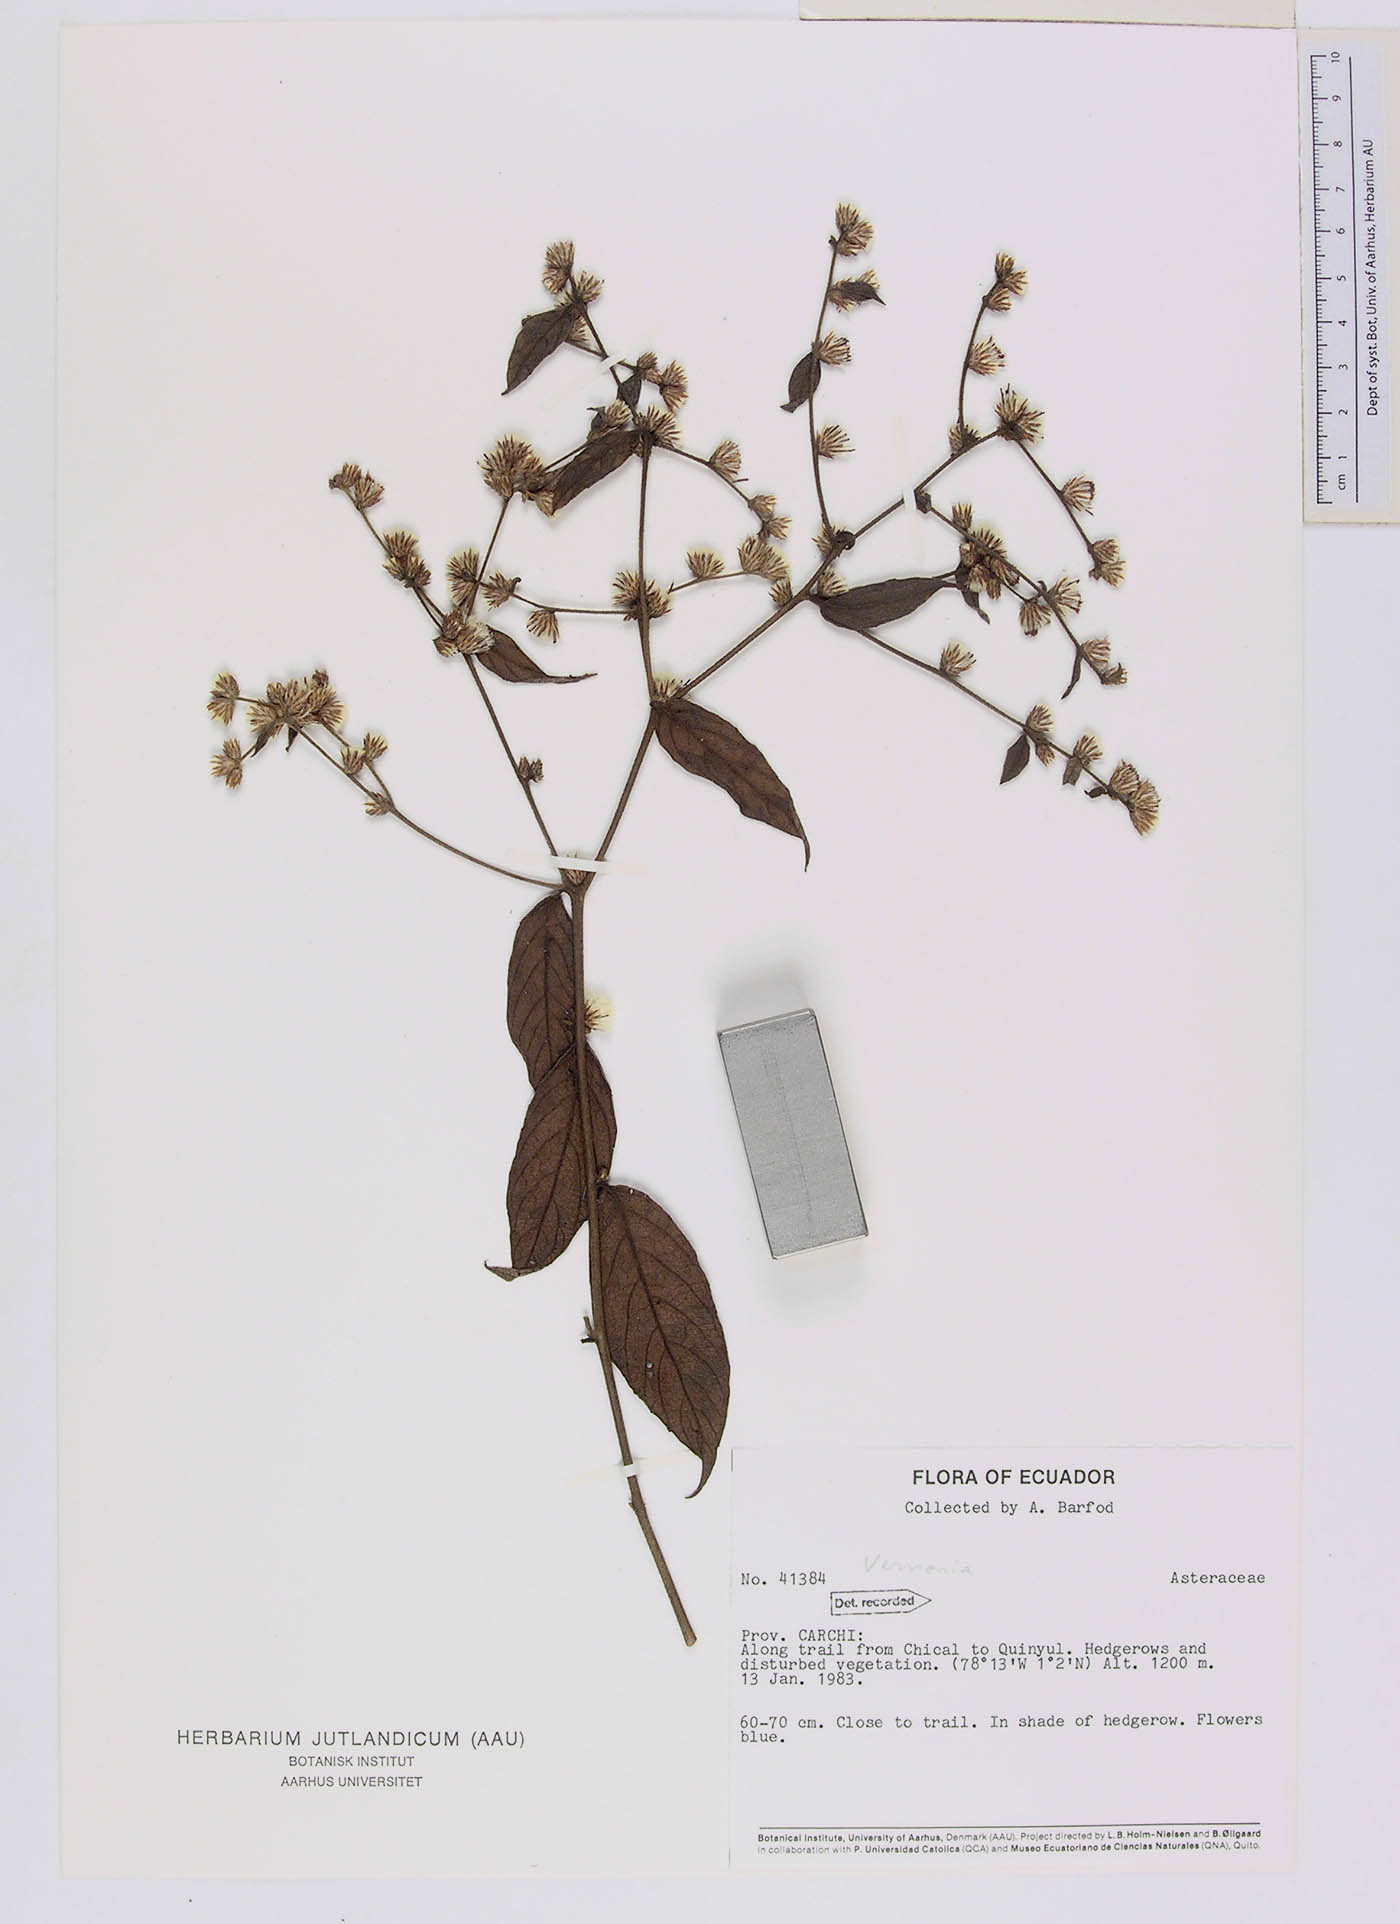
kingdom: Plantae
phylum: Tracheophyta
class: Magnoliopsida
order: Asterales
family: Asteraceae
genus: Lepidaploa
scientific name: Lepidaploa canescens
